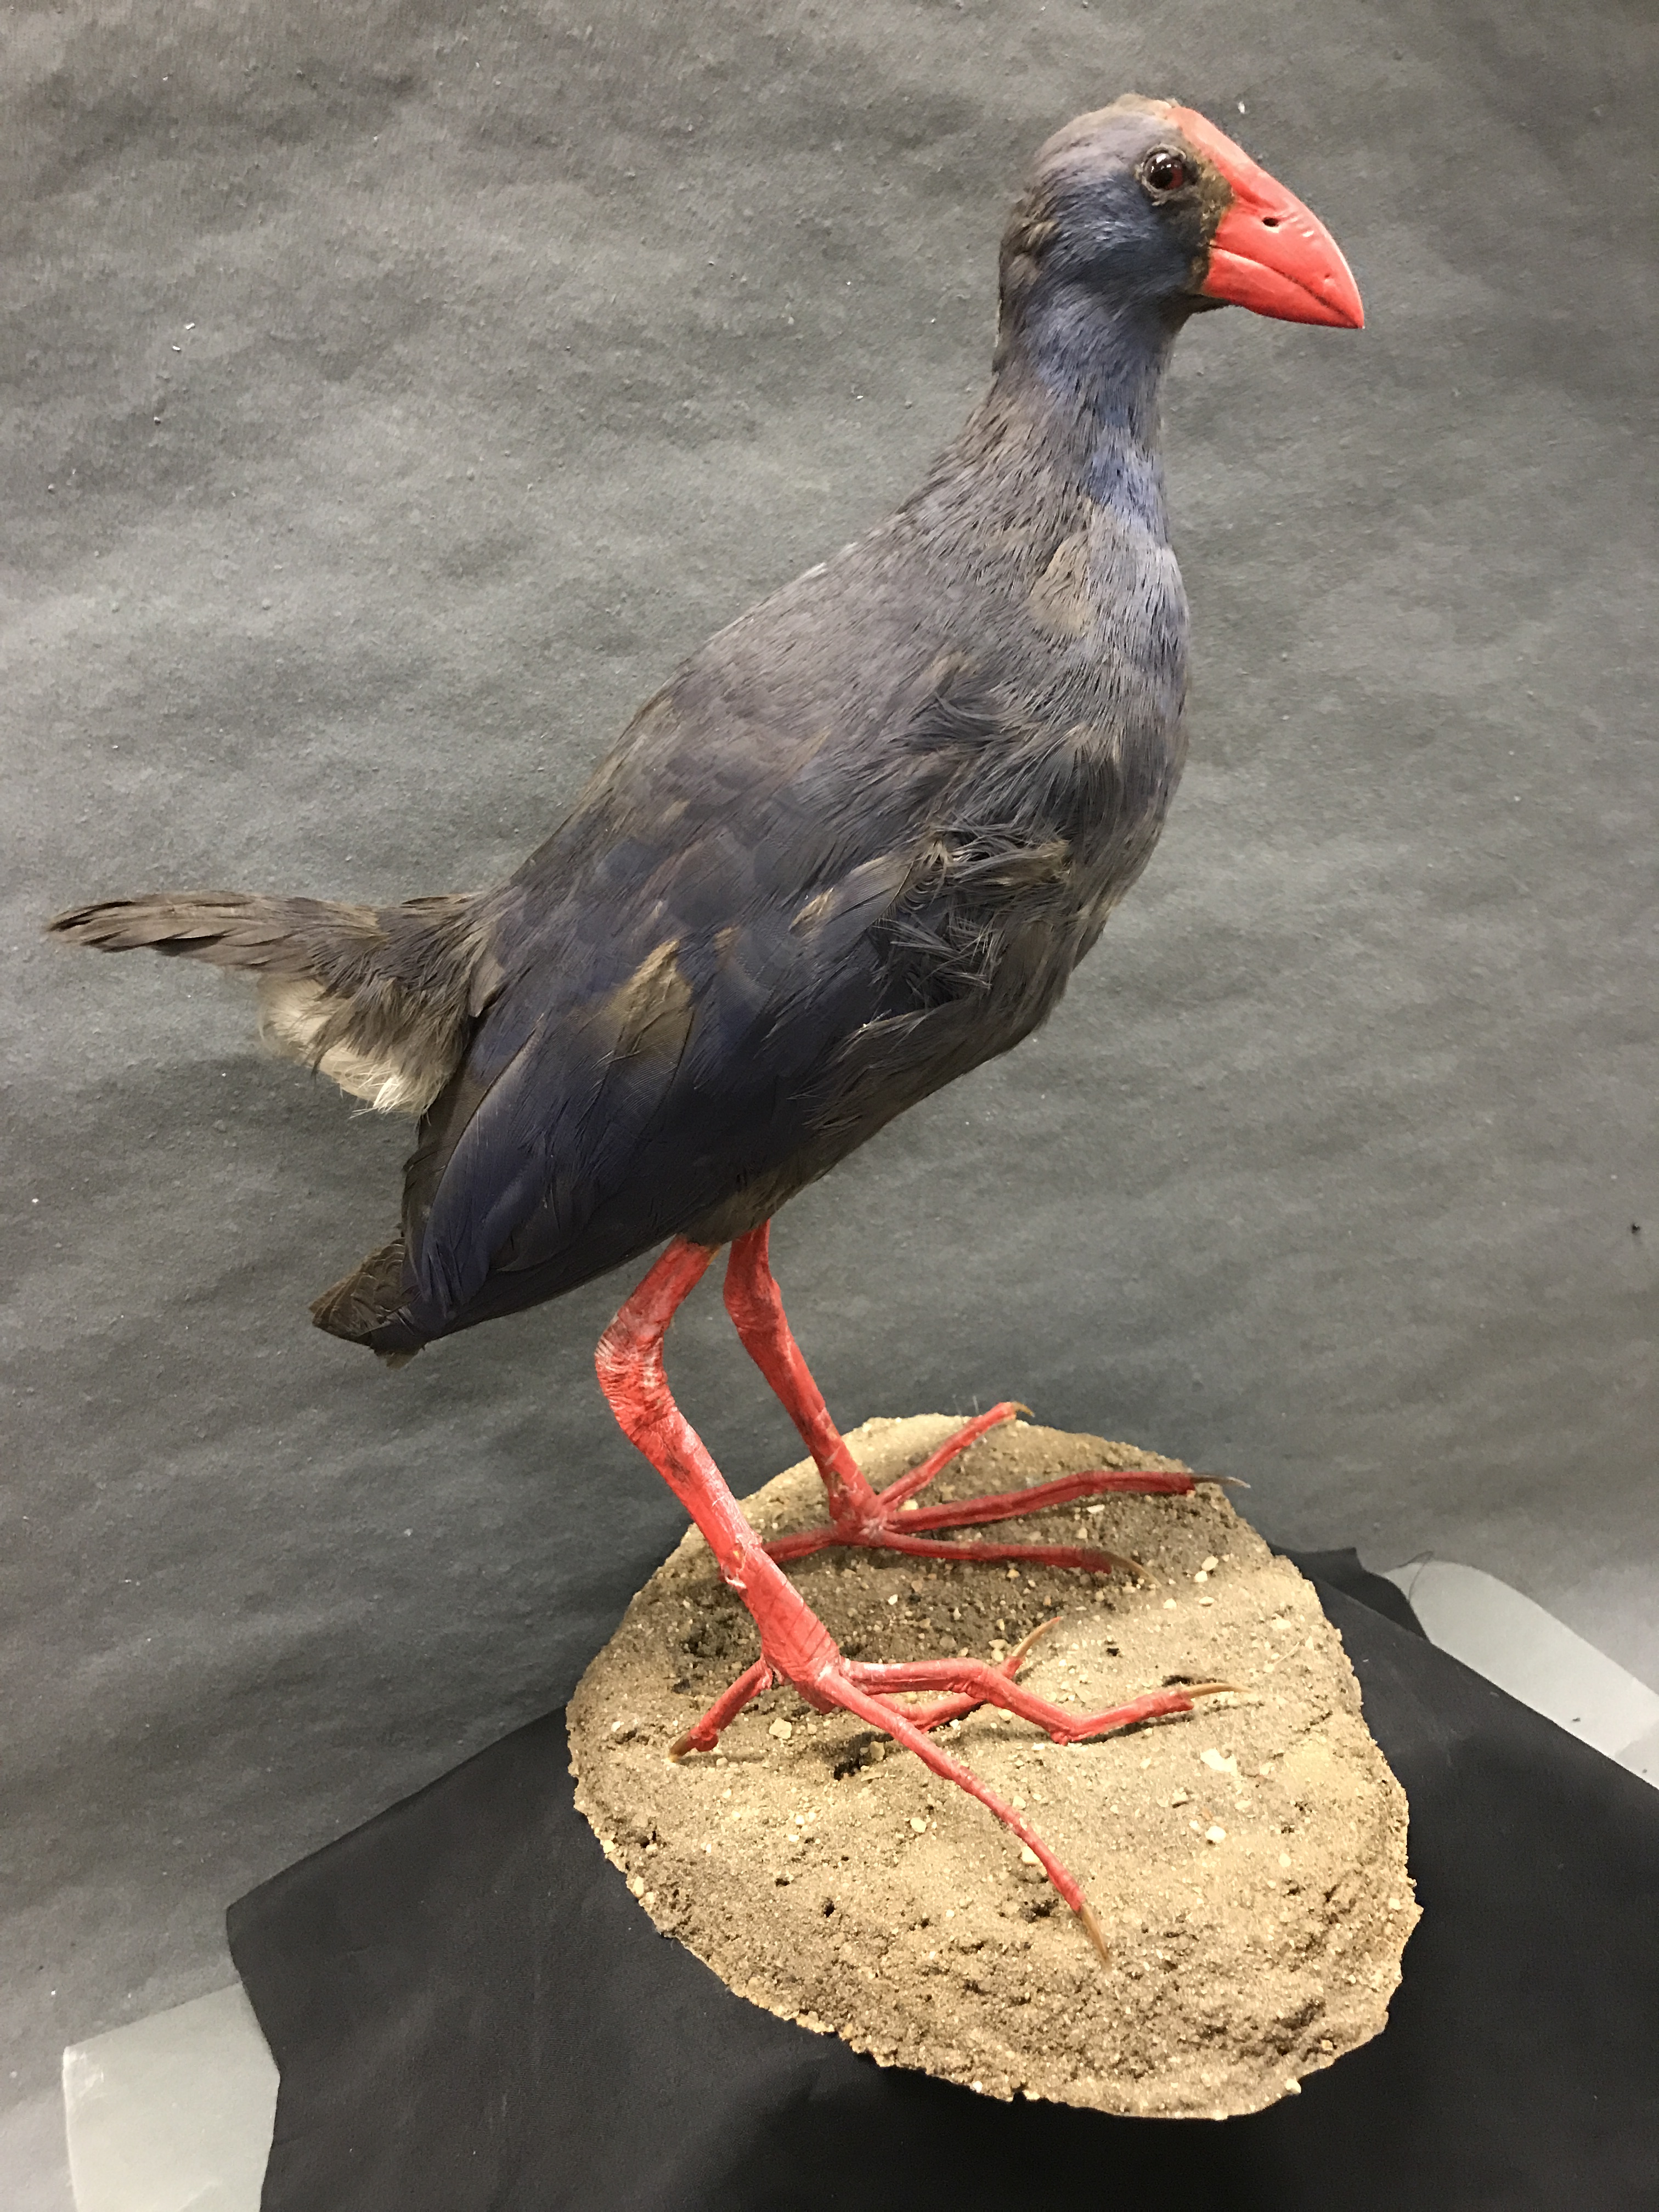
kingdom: Animalia
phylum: Chordata
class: Aves
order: Gruiformes
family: Rallidae
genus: Porphyrio
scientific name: Porphyrio porphyrio
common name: Purple swamphen
